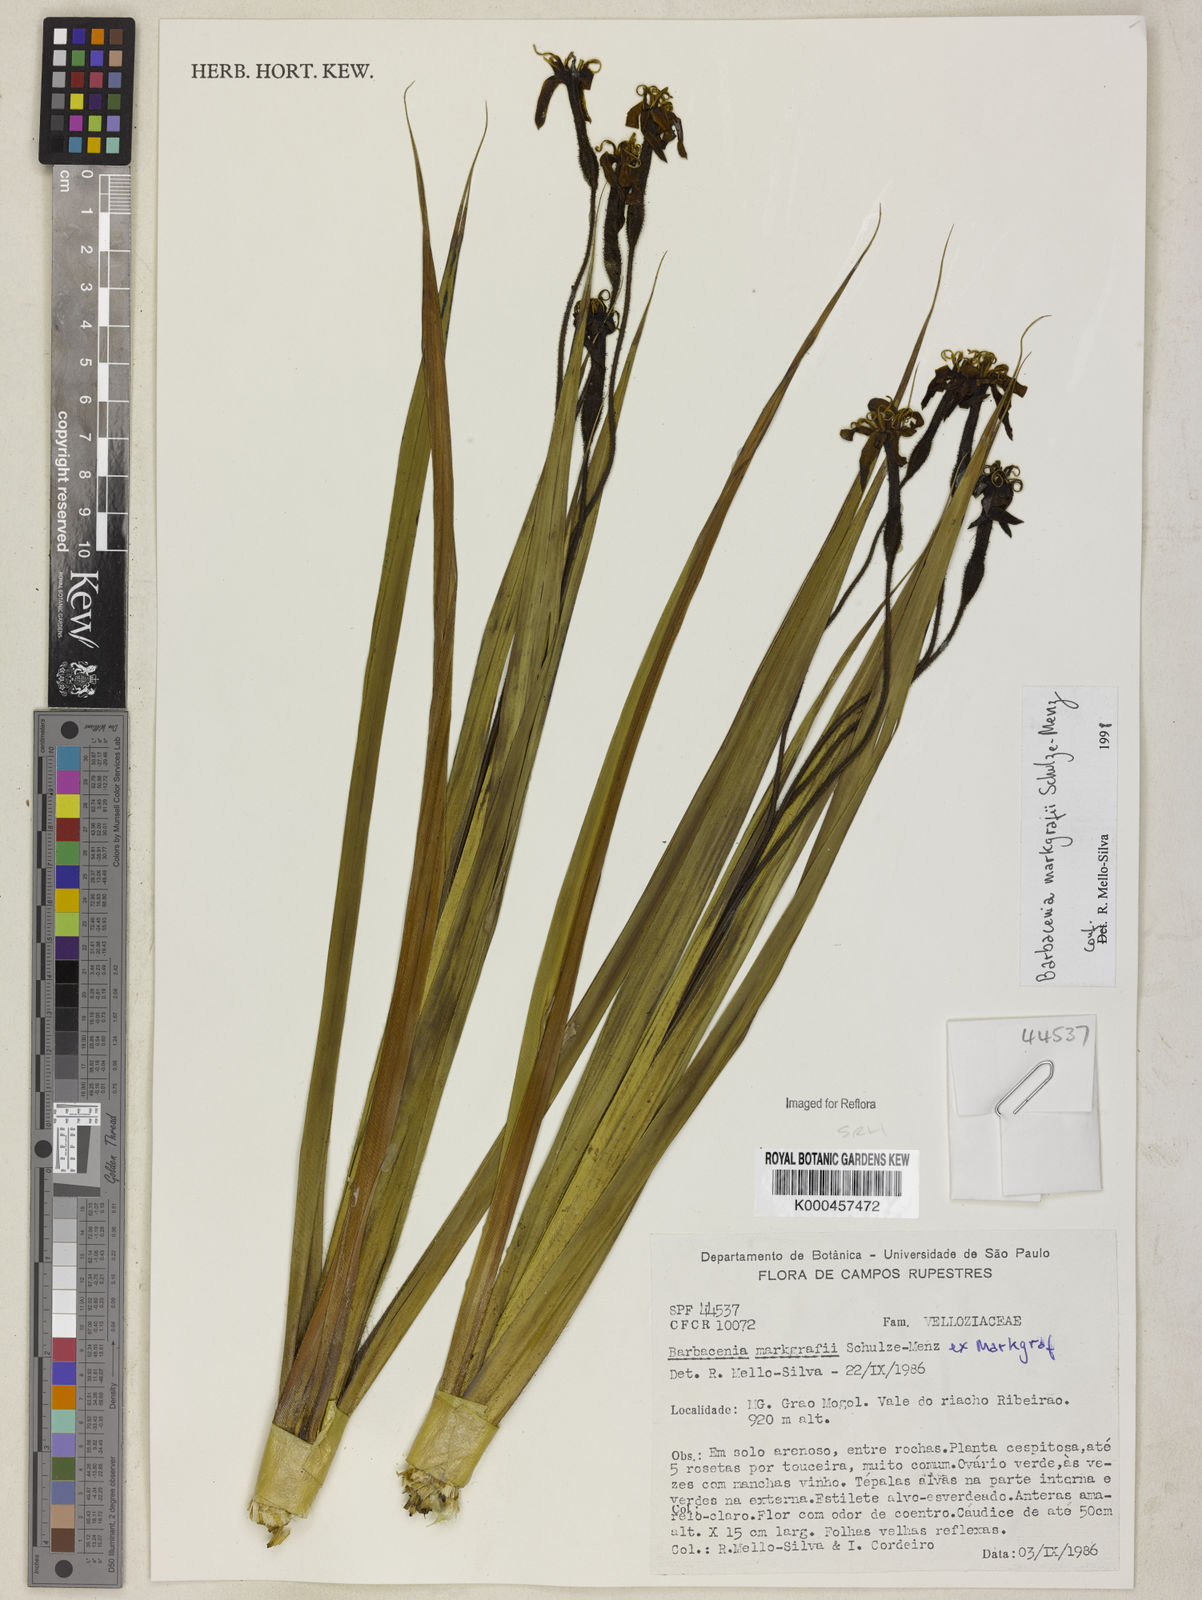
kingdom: Plantae
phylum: Tracheophyta
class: Liliopsida
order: Pandanales
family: Velloziaceae
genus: Barbacenia
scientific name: Barbacenia markgrafii
